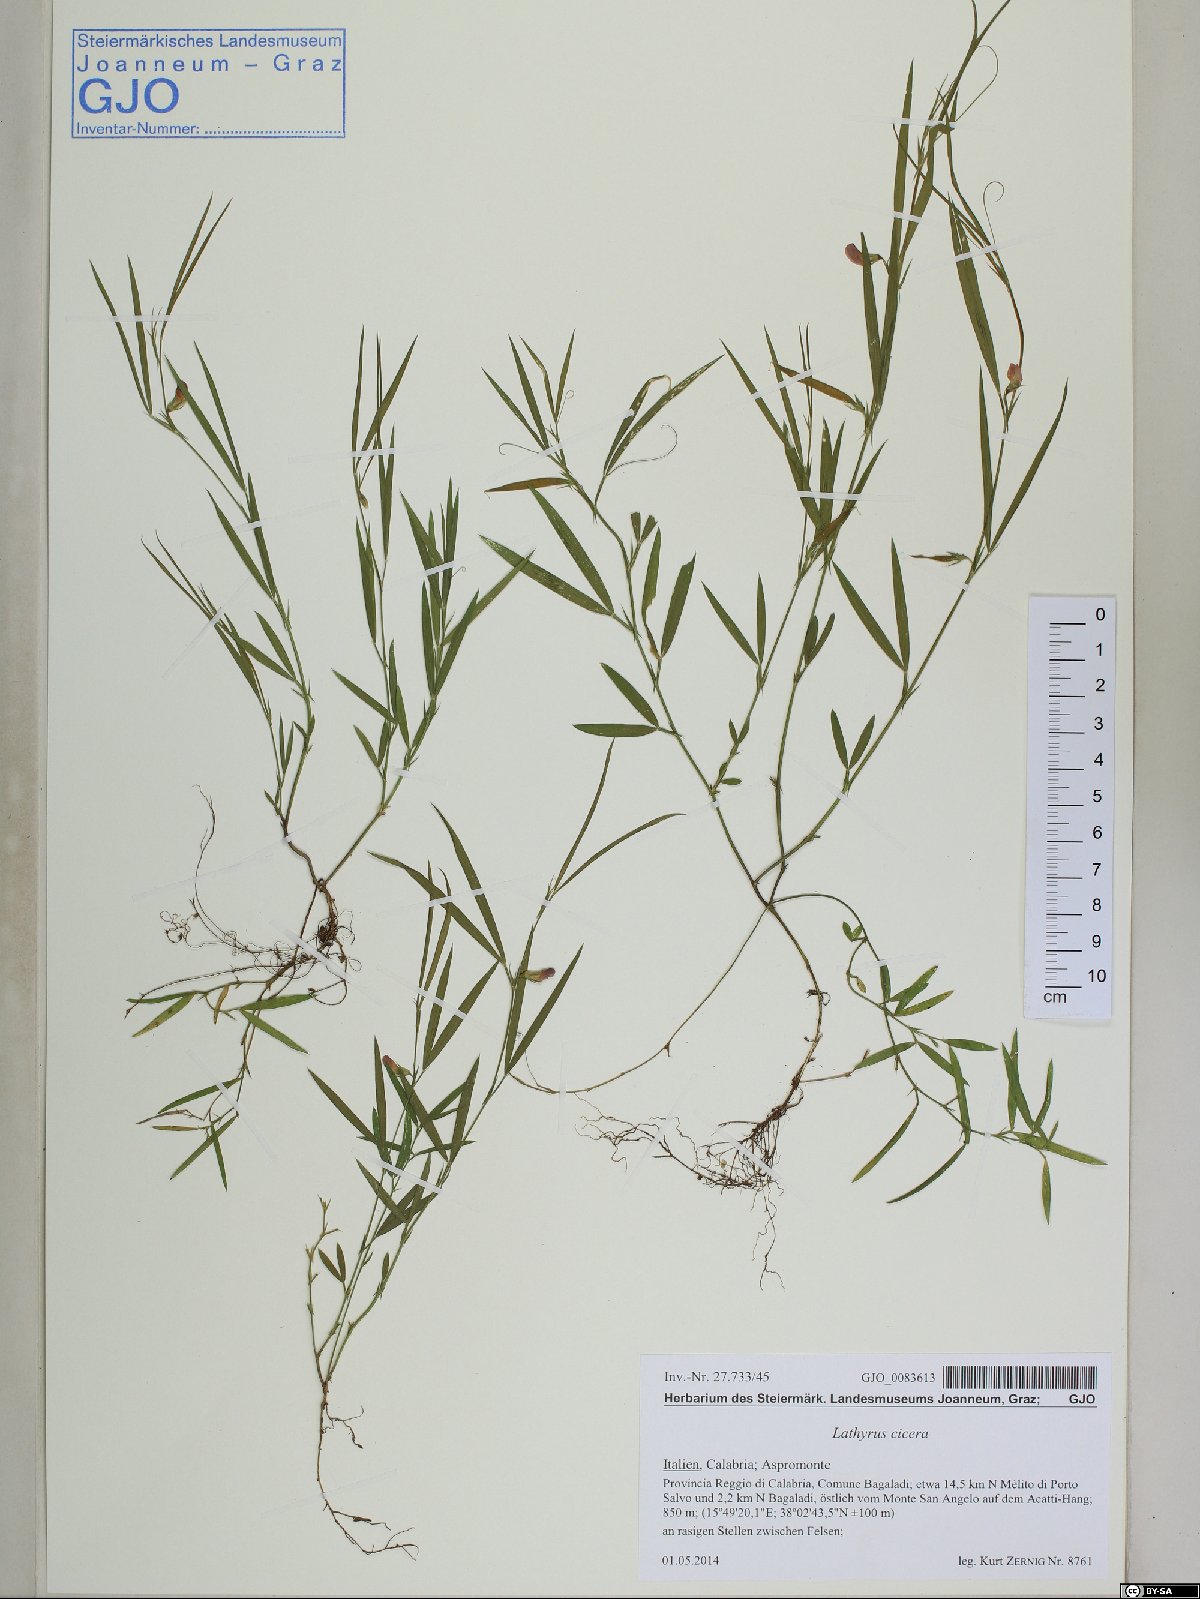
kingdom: Plantae
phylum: Tracheophyta
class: Magnoliopsida
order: Fabales
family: Fabaceae
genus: Lathyrus
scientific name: Lathyrus cicera
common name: Red vetchling
